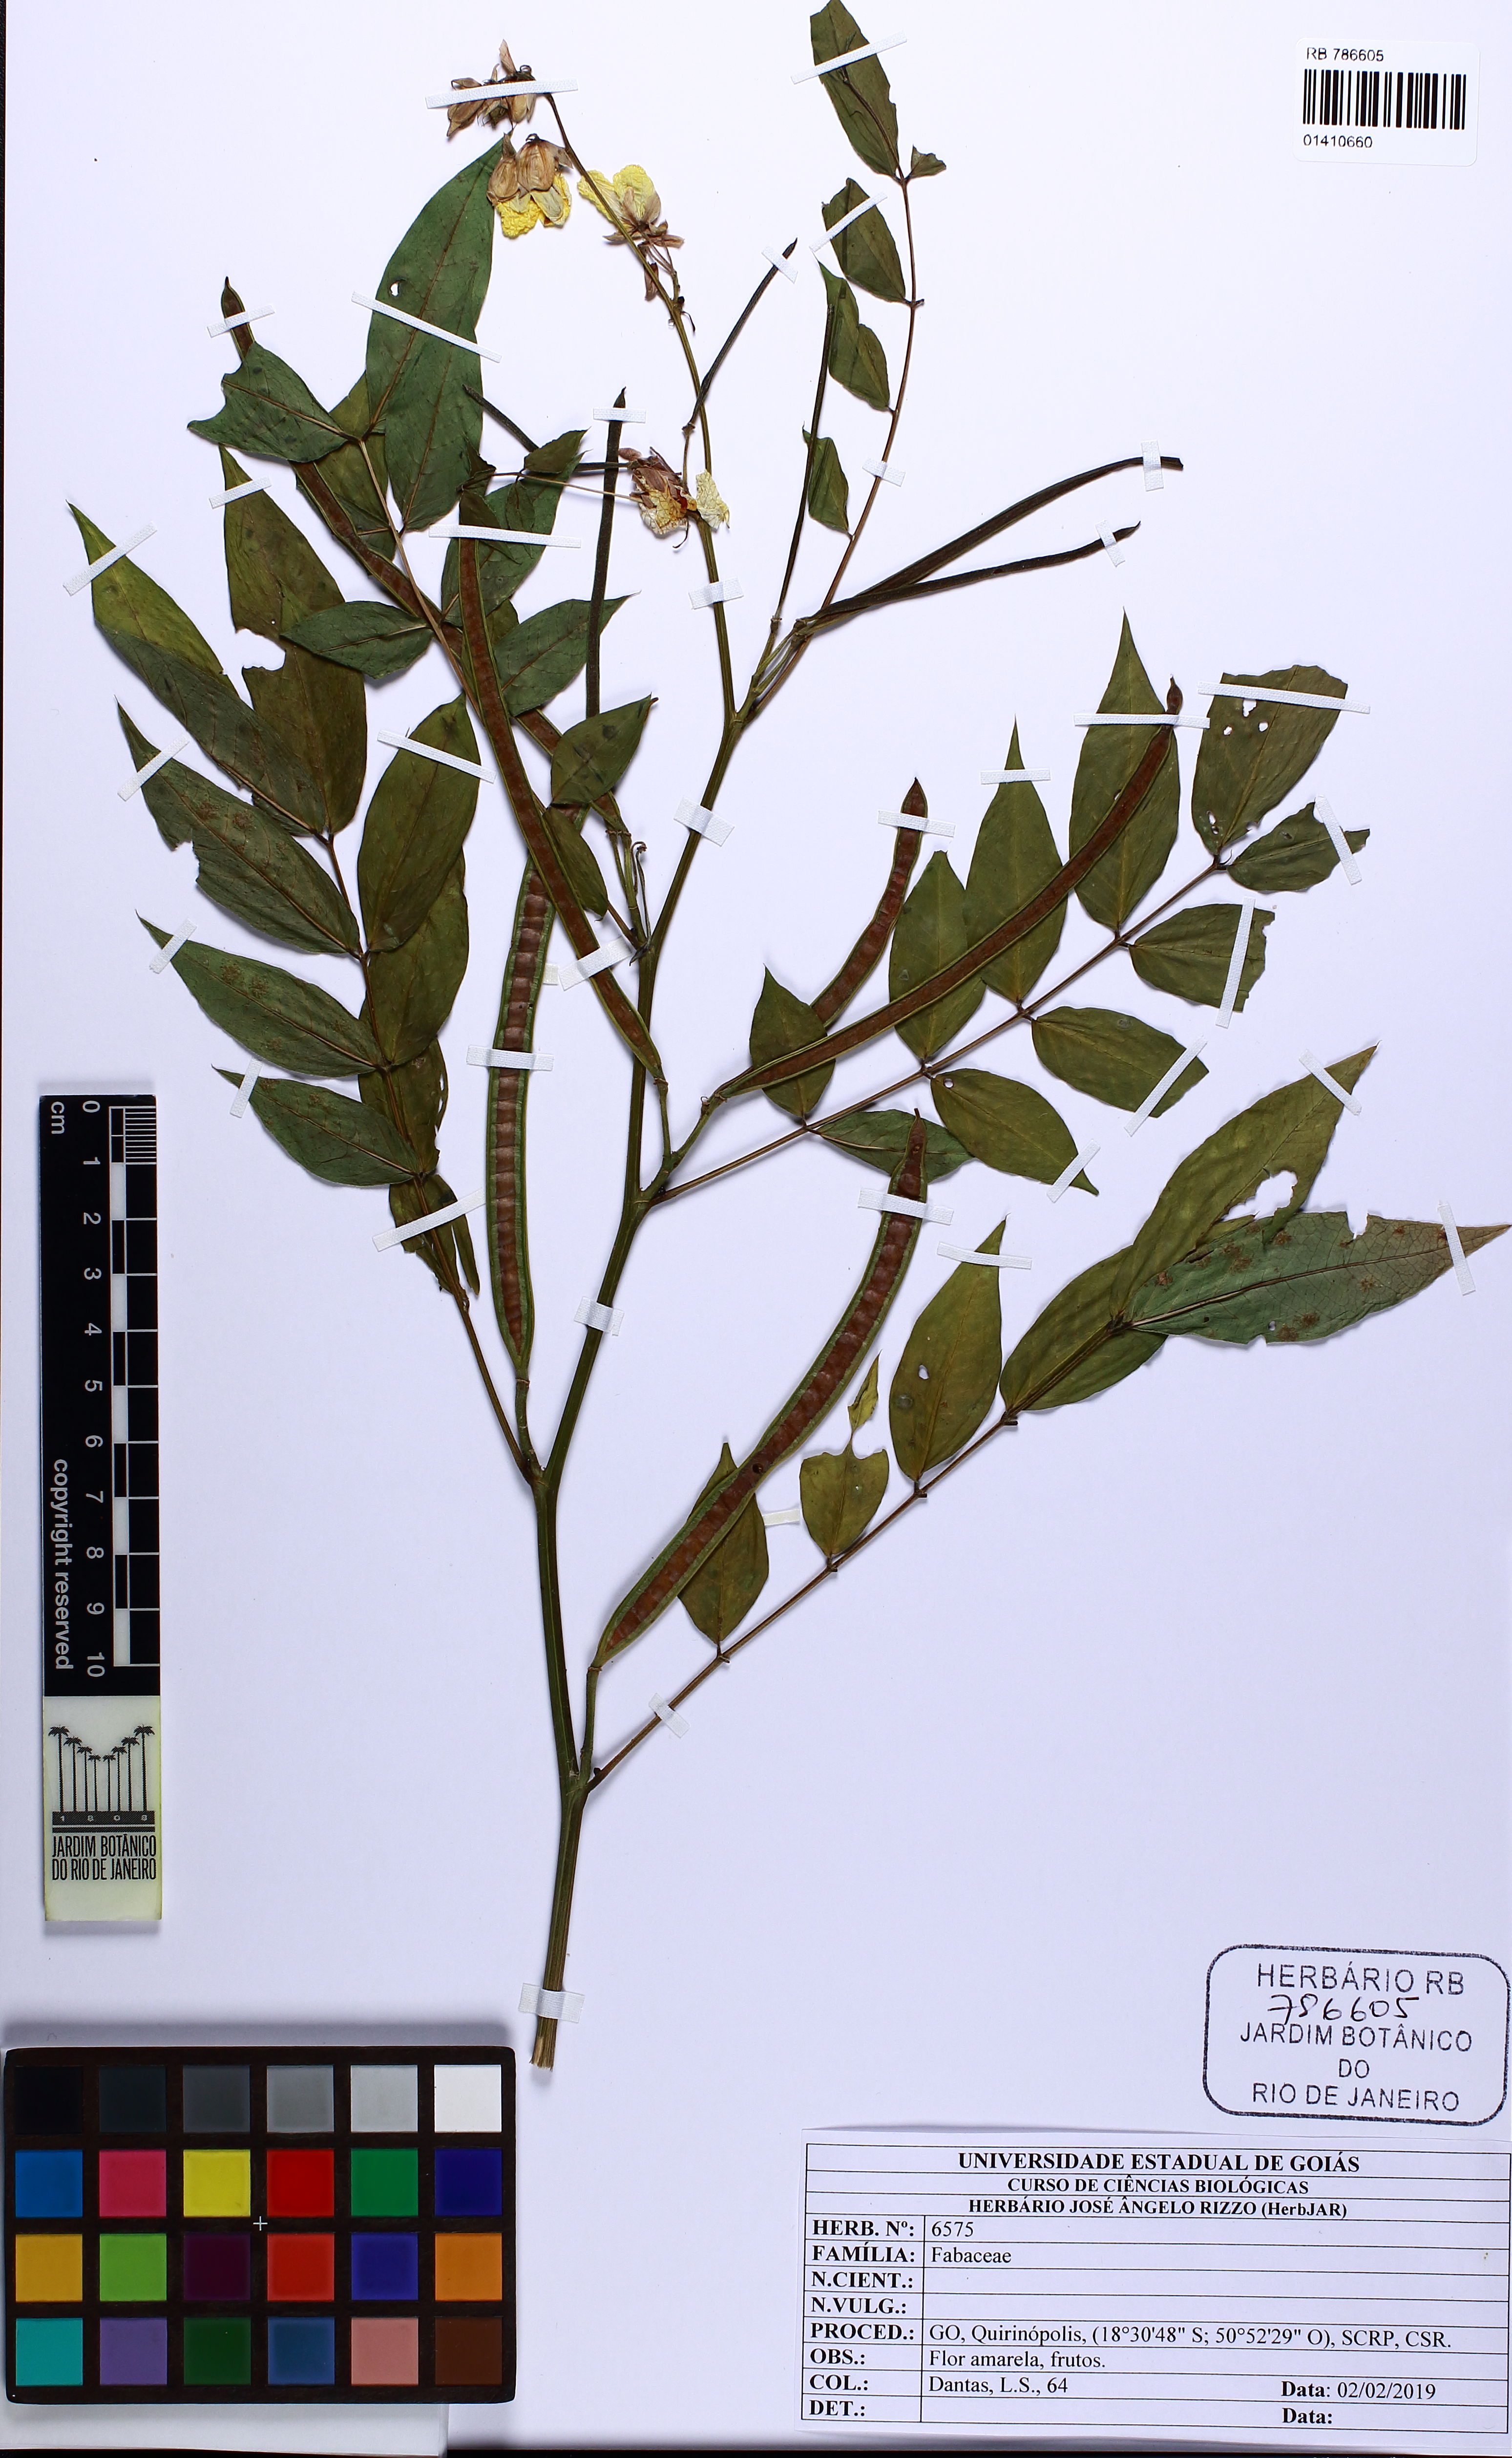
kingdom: Plantae
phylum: Tracheophyta
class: Magnoliopsida
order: Fabales
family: Fabaceae
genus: Senna
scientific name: Senna occidentalis
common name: Septicweed
